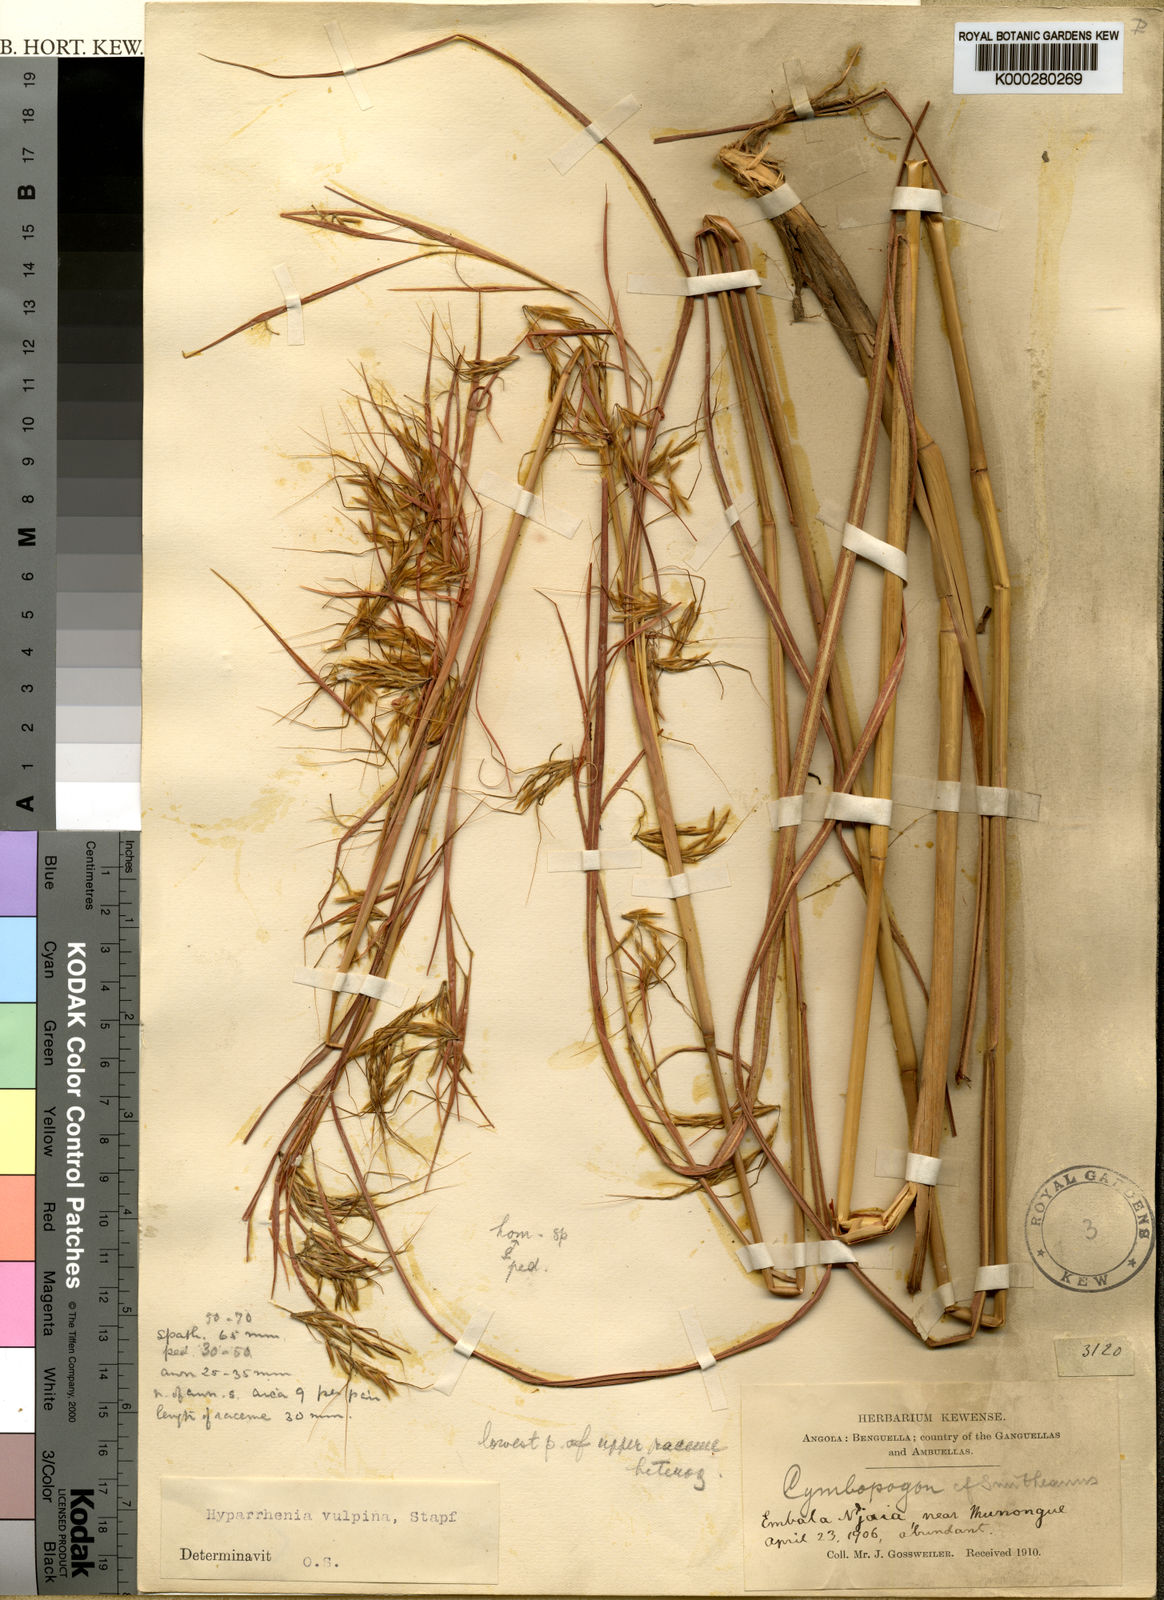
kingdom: Plantae
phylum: Tracheophyta
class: Liliopsida
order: Poales
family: Poaceae
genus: Hyparrhenia
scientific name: Hyparrhenia nyassae
